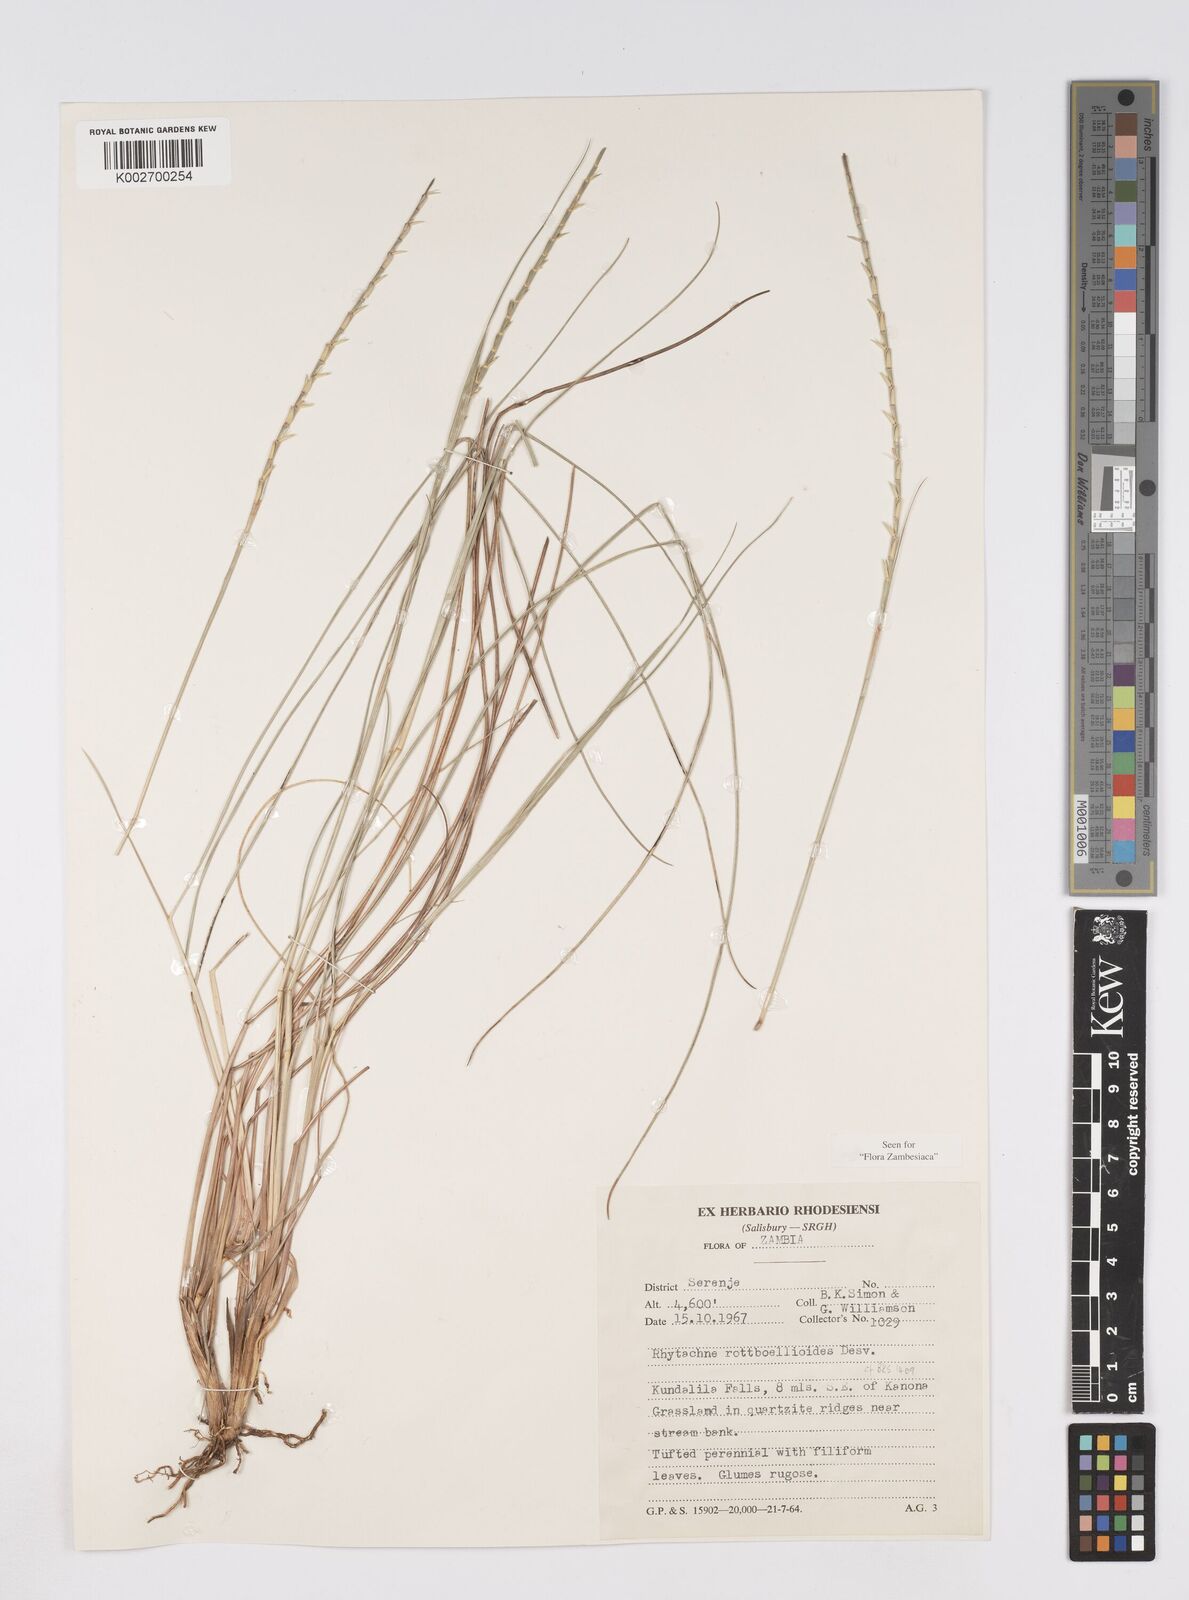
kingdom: Plantae
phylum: Tracheophyta
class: Liliopsida
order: Poales
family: Poaceae
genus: Rhytachne
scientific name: Rhytachne rottboellioides
